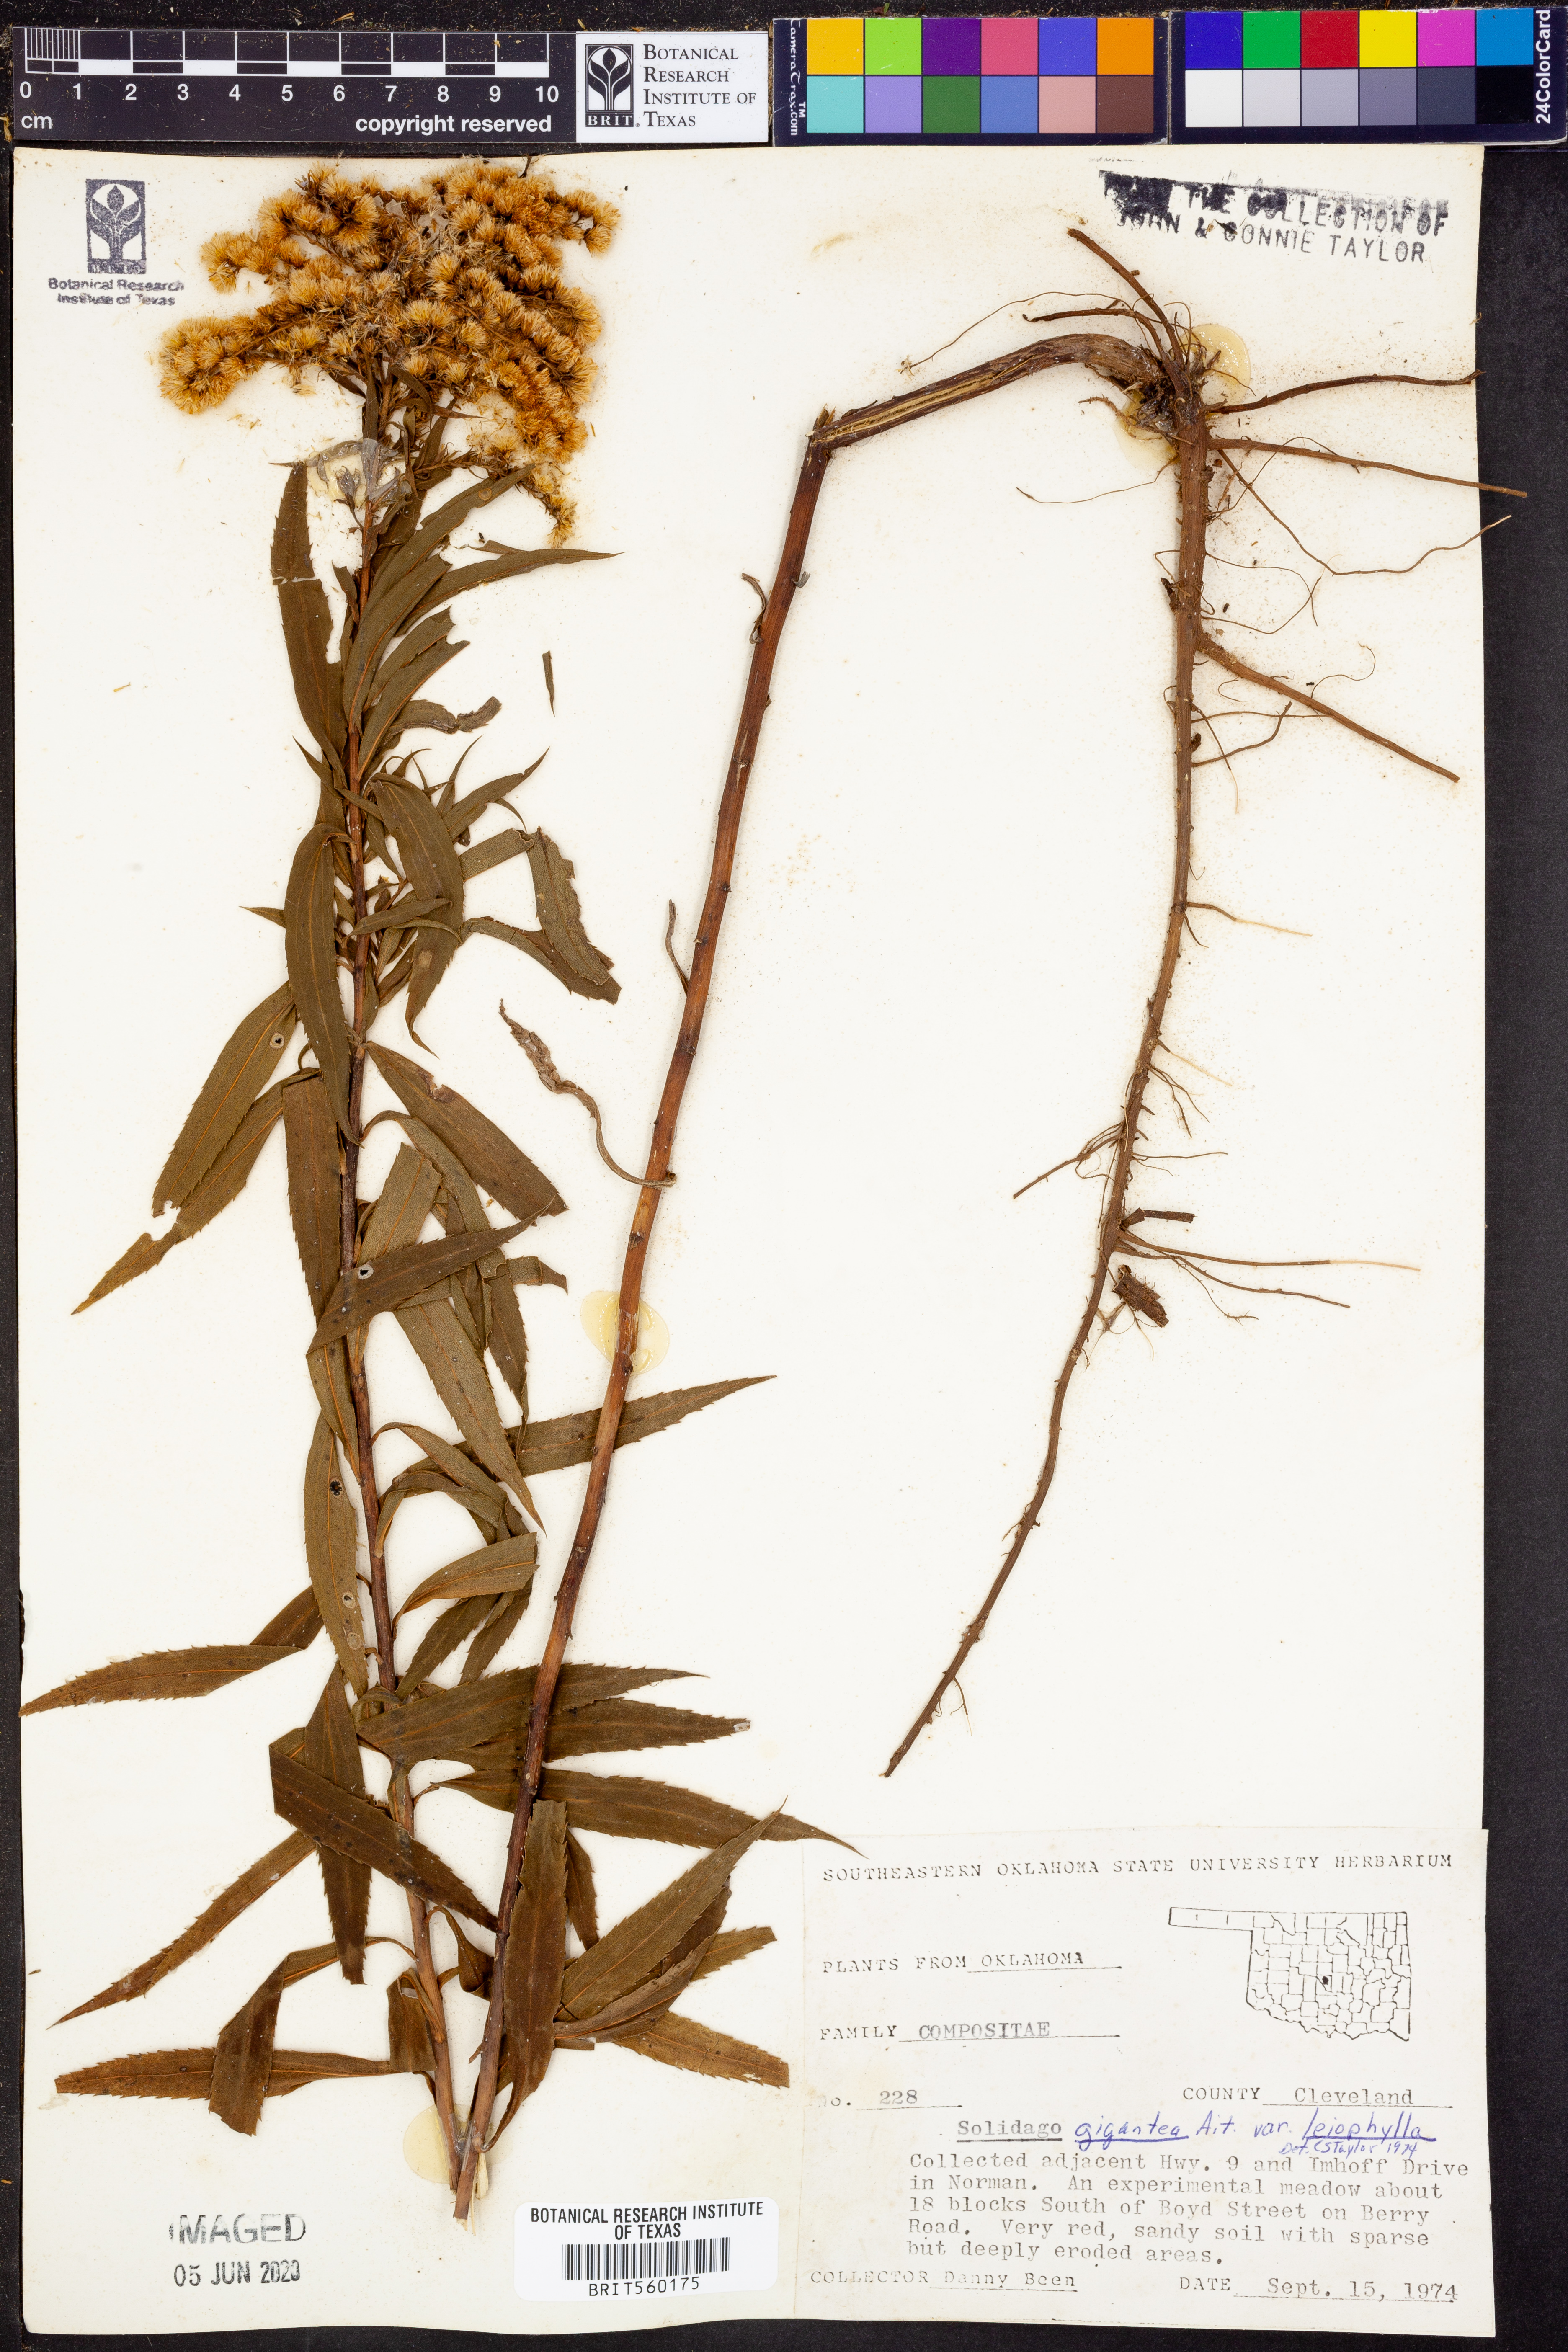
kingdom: Plantae
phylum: Tracheophyta
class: Magnoliopsida
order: Asterales
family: Asteraceae
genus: Solidago
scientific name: Solidago gigantea
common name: Giant goldenrod
